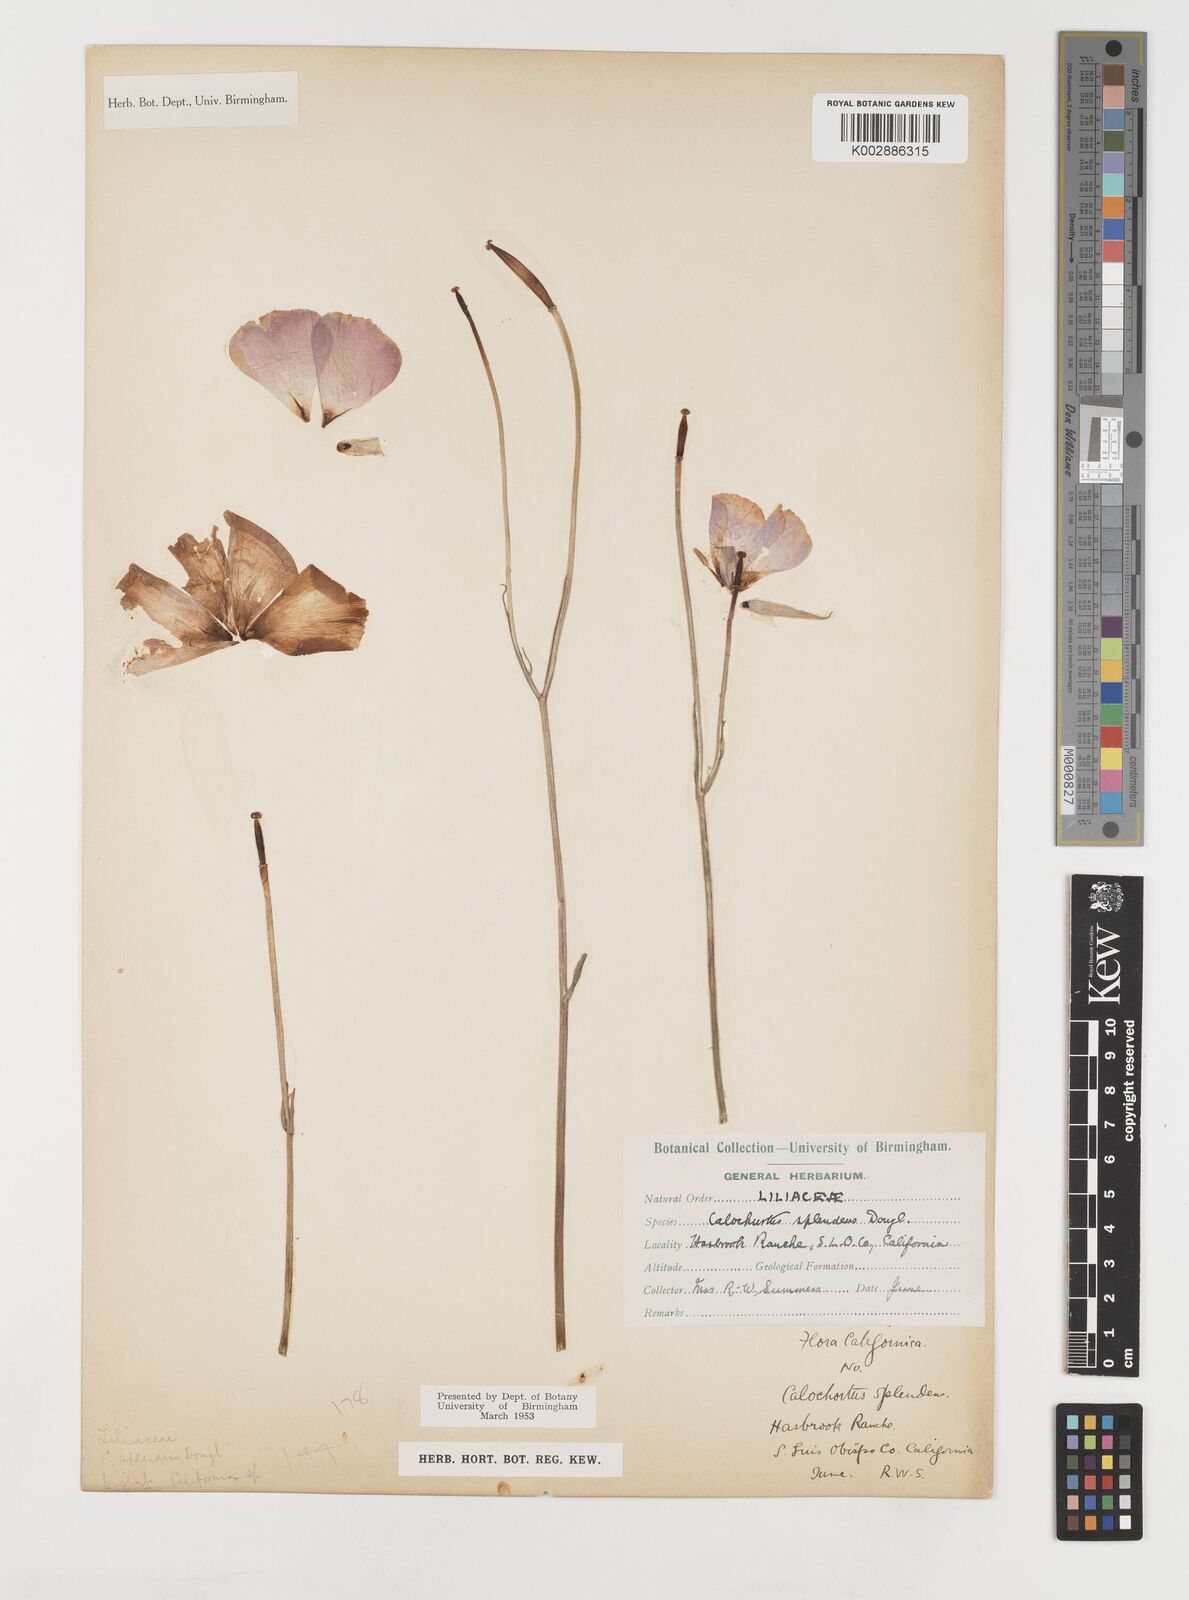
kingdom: Plantae
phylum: Tracheophyta
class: Liliopsida
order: Liliales
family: Liliaceae
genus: Calochortus
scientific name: Calochortus splendens
